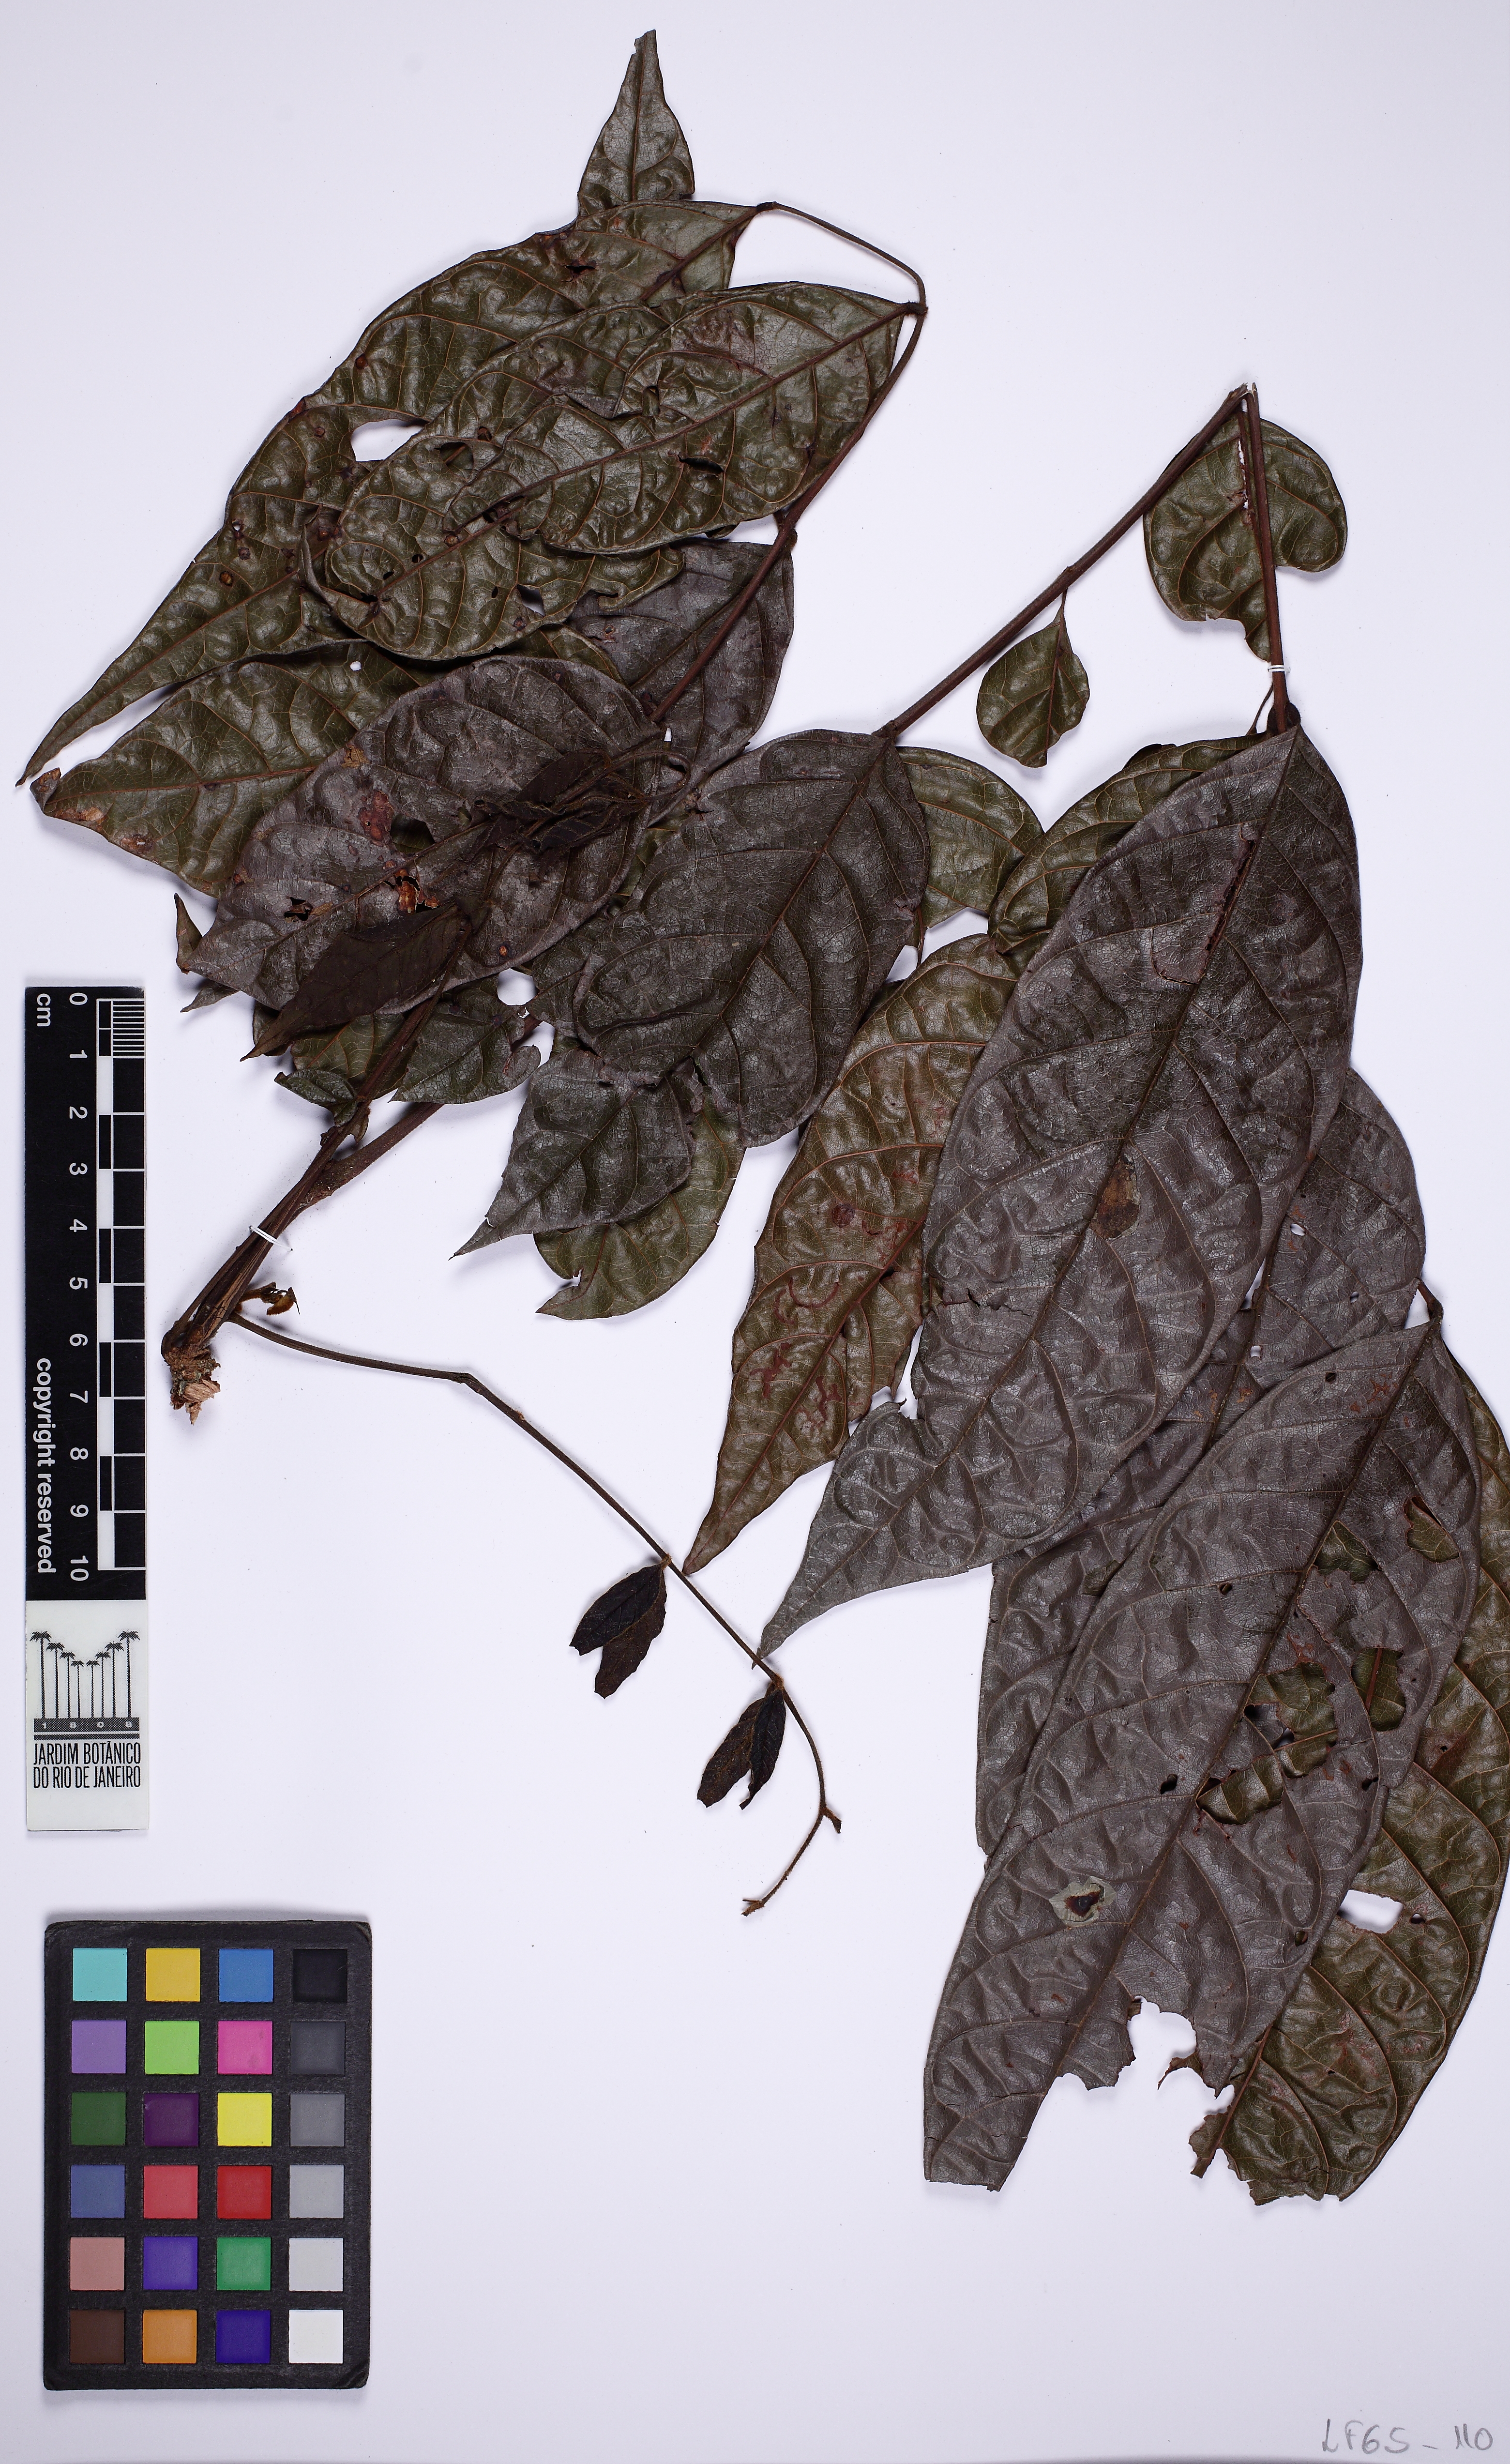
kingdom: Plantae
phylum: Tracheophyta
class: Magnoliopsida
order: Fabales
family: Fabaceae
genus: Tachigali
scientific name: Tachigali rugosa
